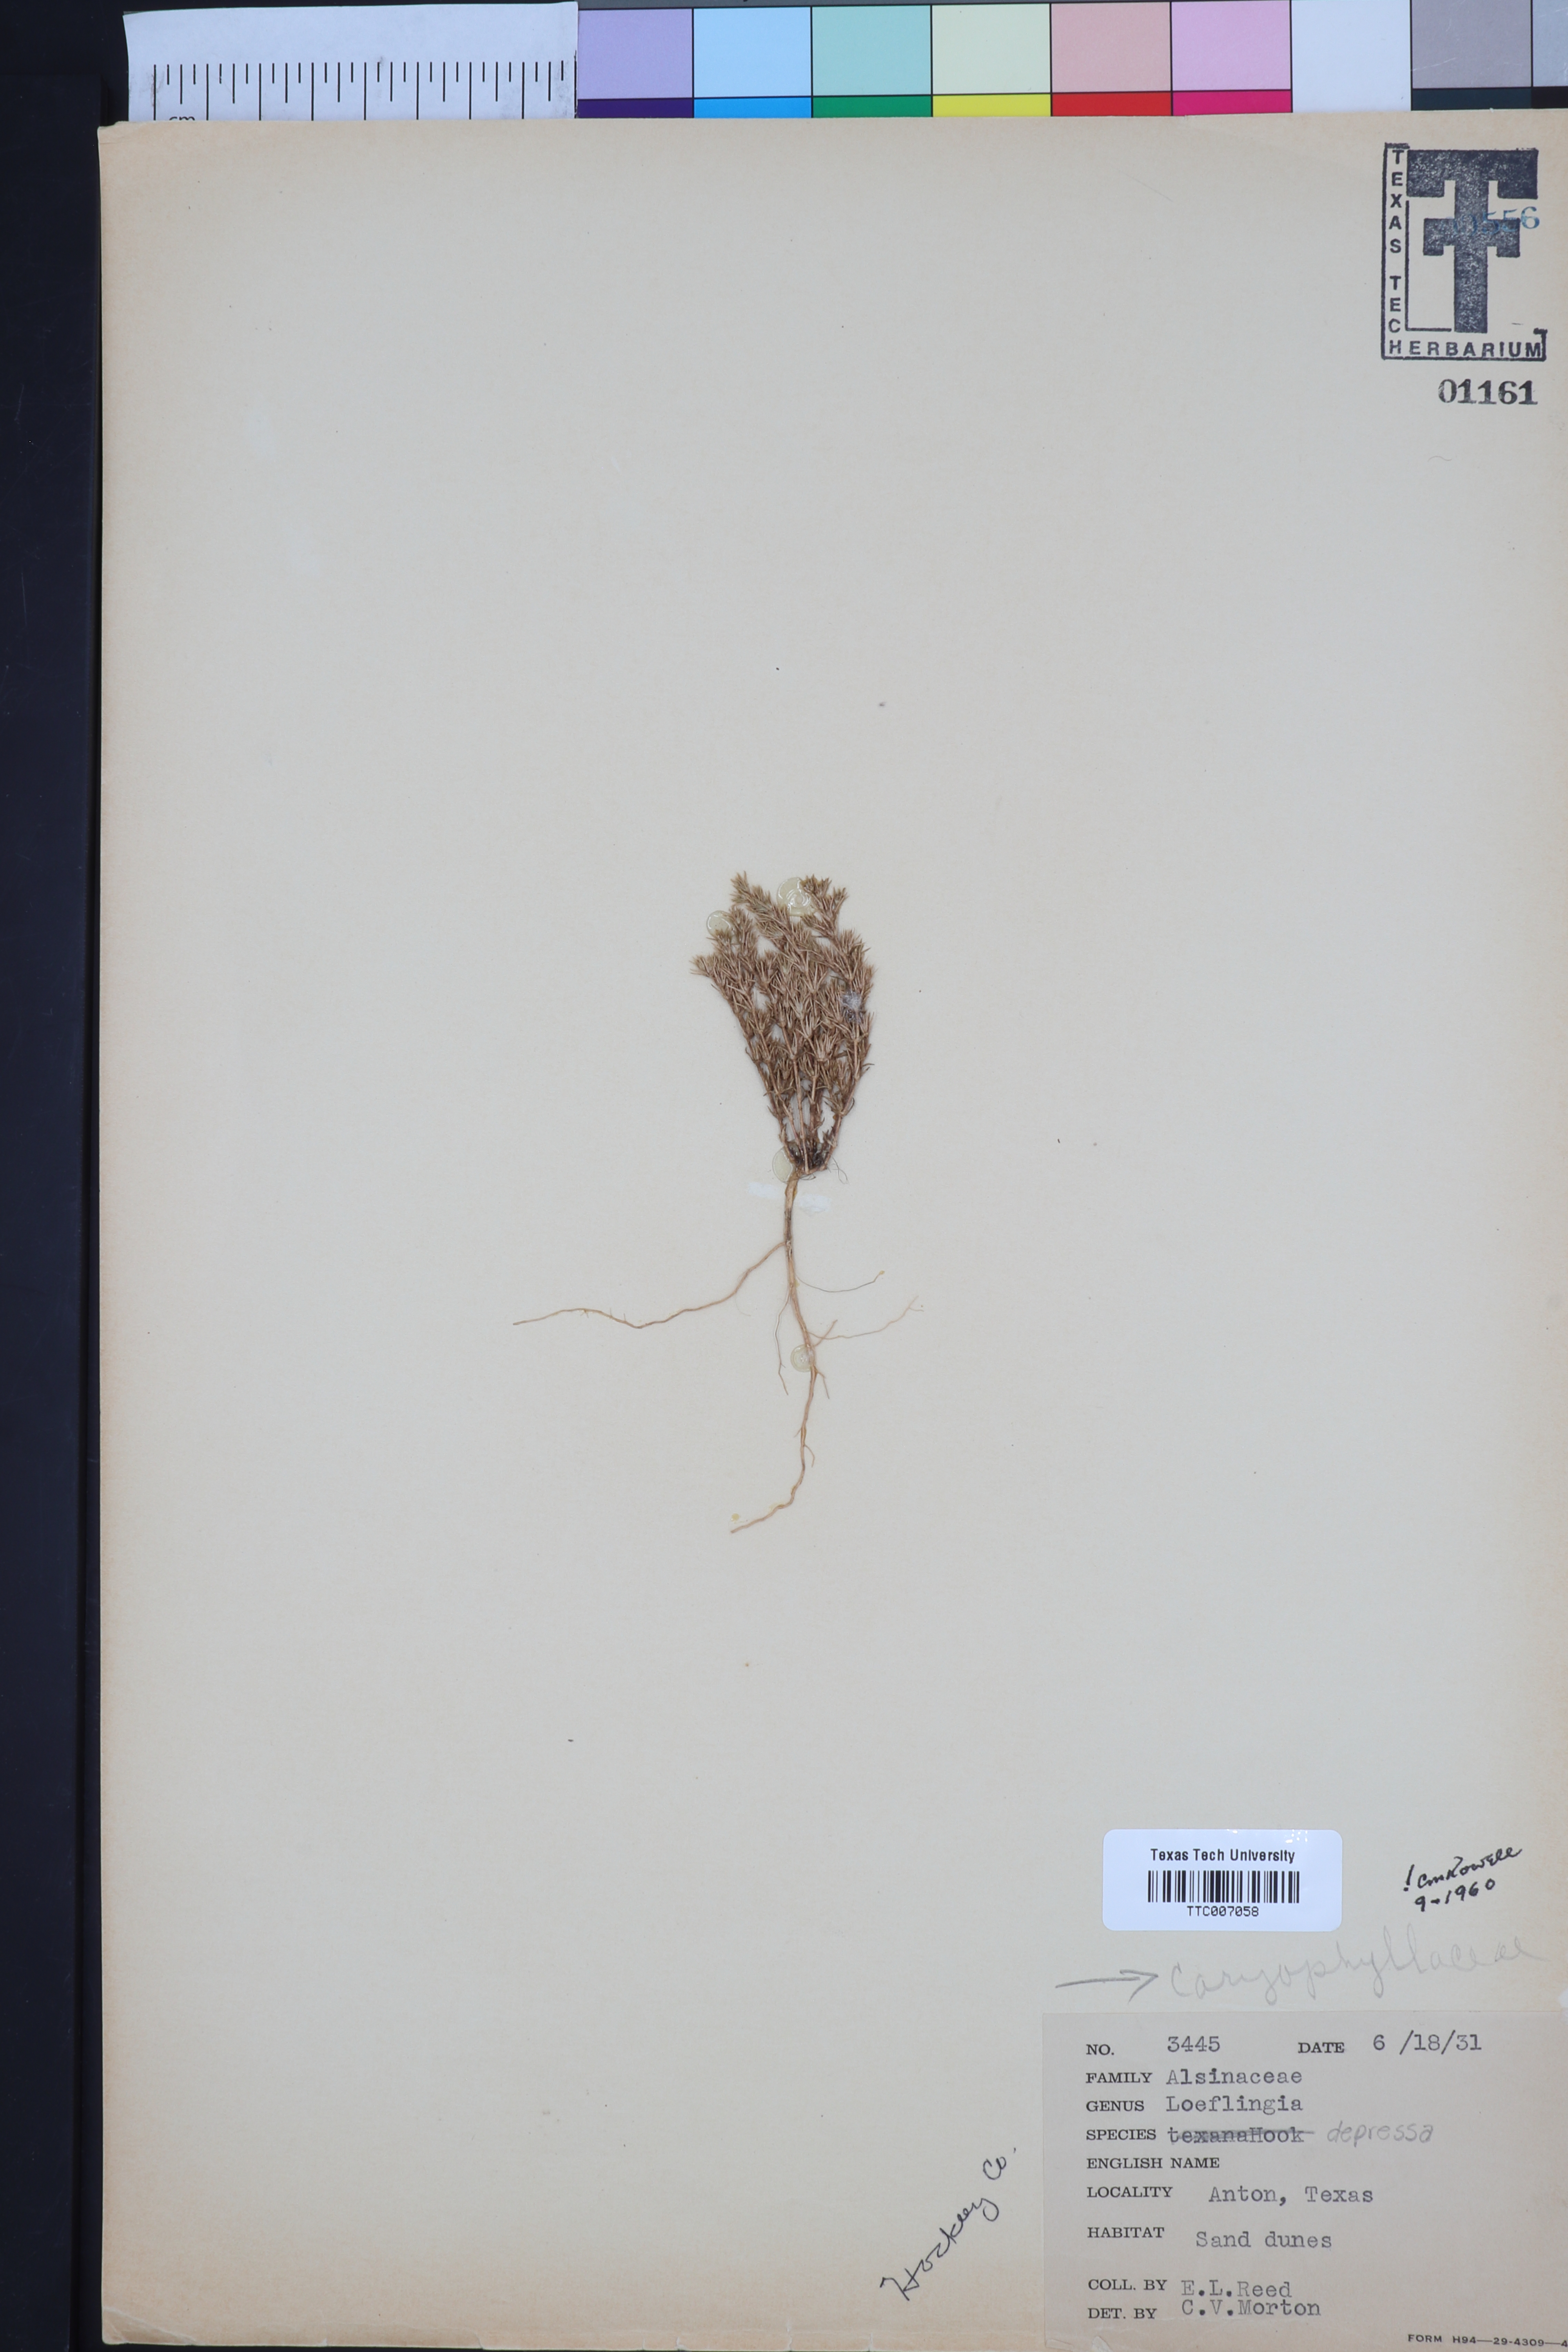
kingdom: Plantae
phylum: Tracheophyta
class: Magnoliopsida
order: Caryophyllales
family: Caryophyllaceae
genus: Loeflingia
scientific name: Loeflingia squarrosa
